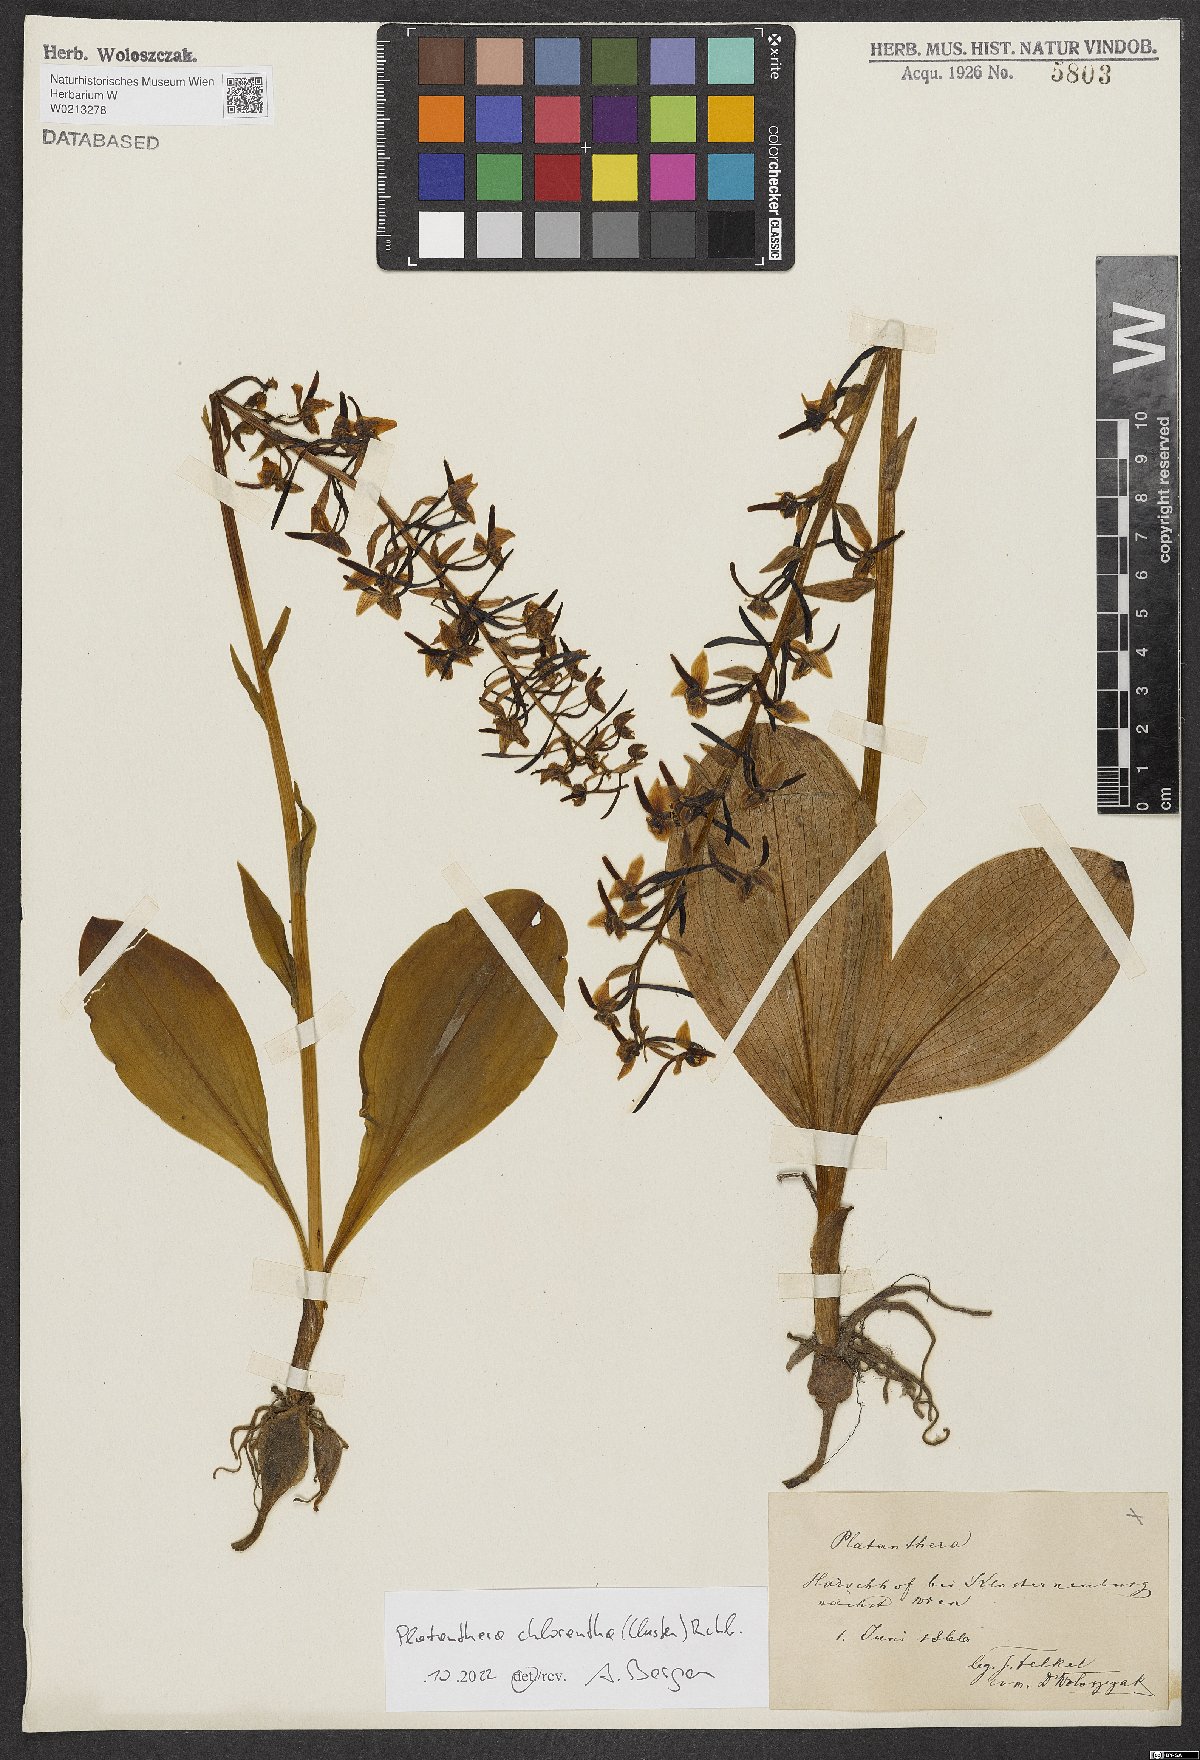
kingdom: Plantae
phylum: Tracheophyta
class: Liliopsida
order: Asparagales
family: Orchidaceae
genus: Platanthera
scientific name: Platanthera chlorantha
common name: Greater butterfly-orchid
